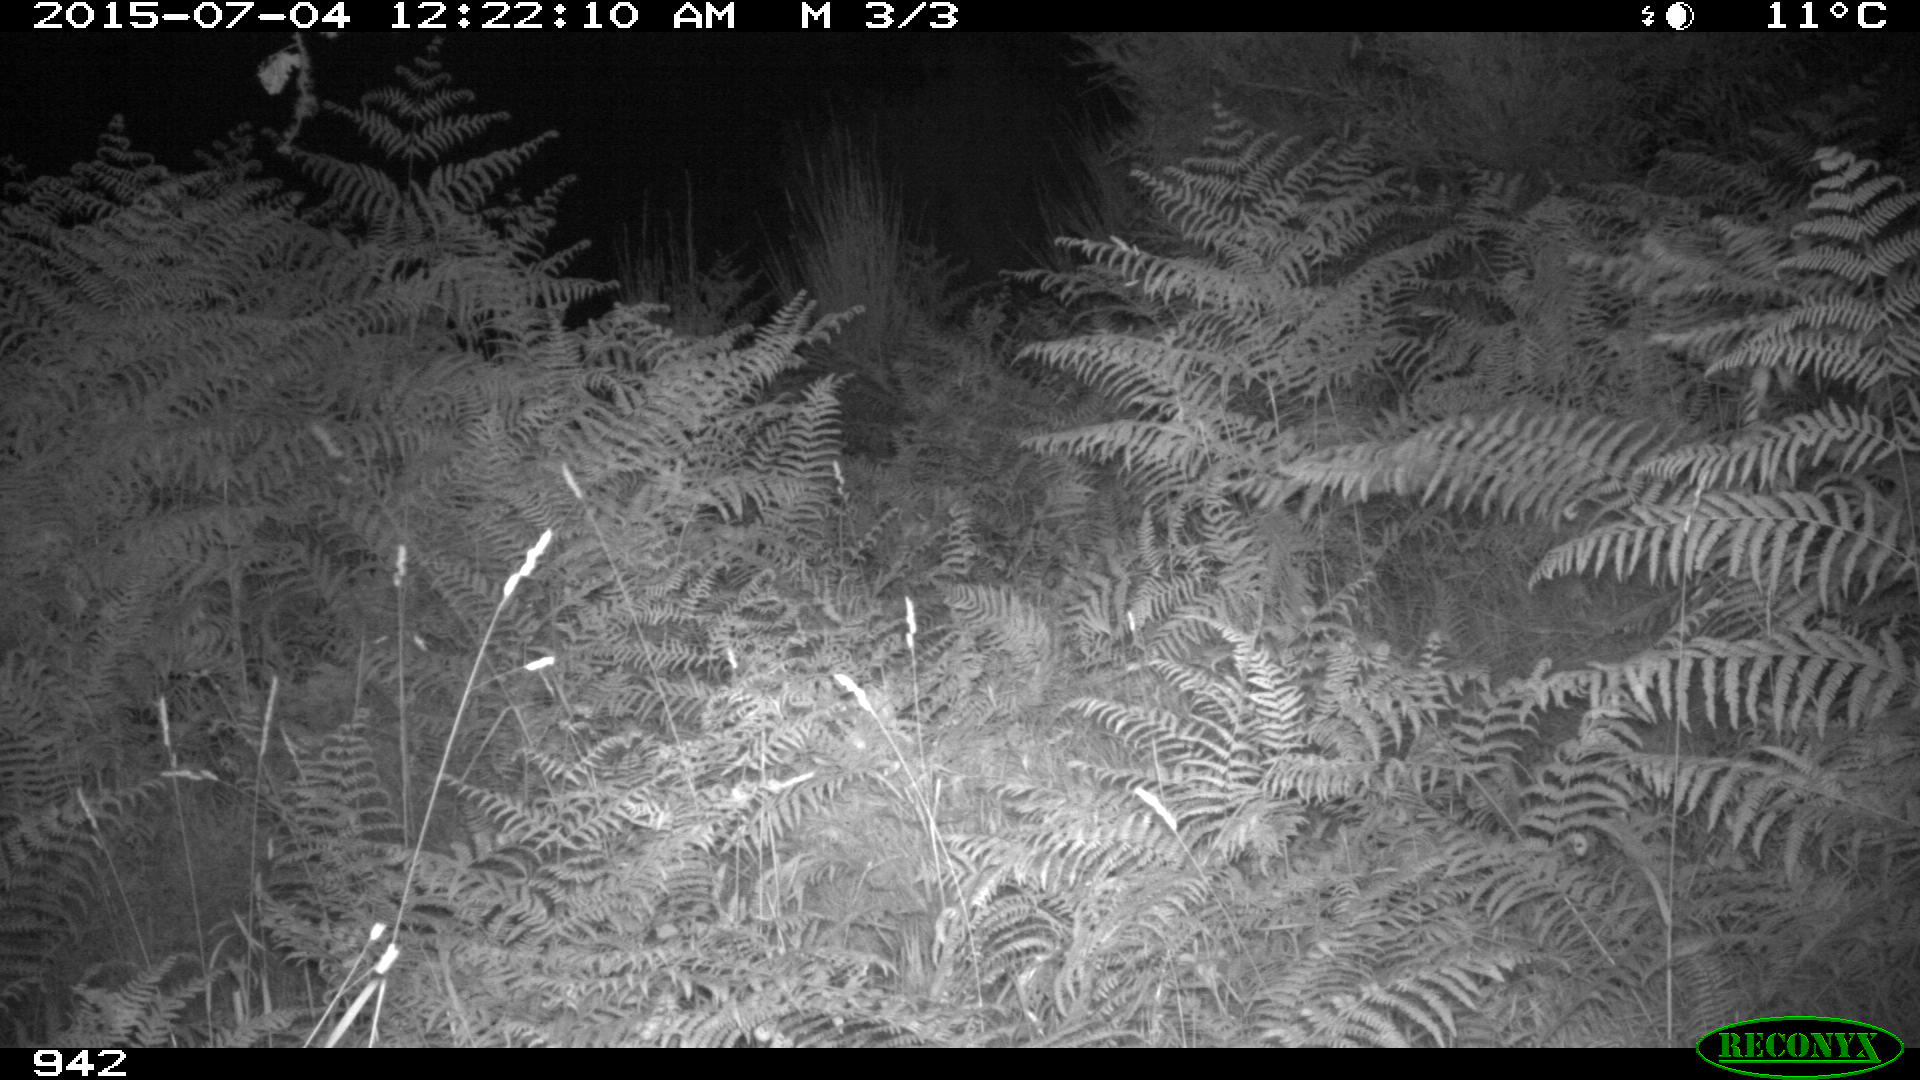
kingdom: Animalia
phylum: Chordata
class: Mammalia
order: Artiodactyla
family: Bovidae
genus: Bos
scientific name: Bos taurus
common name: Domesticated cattle
